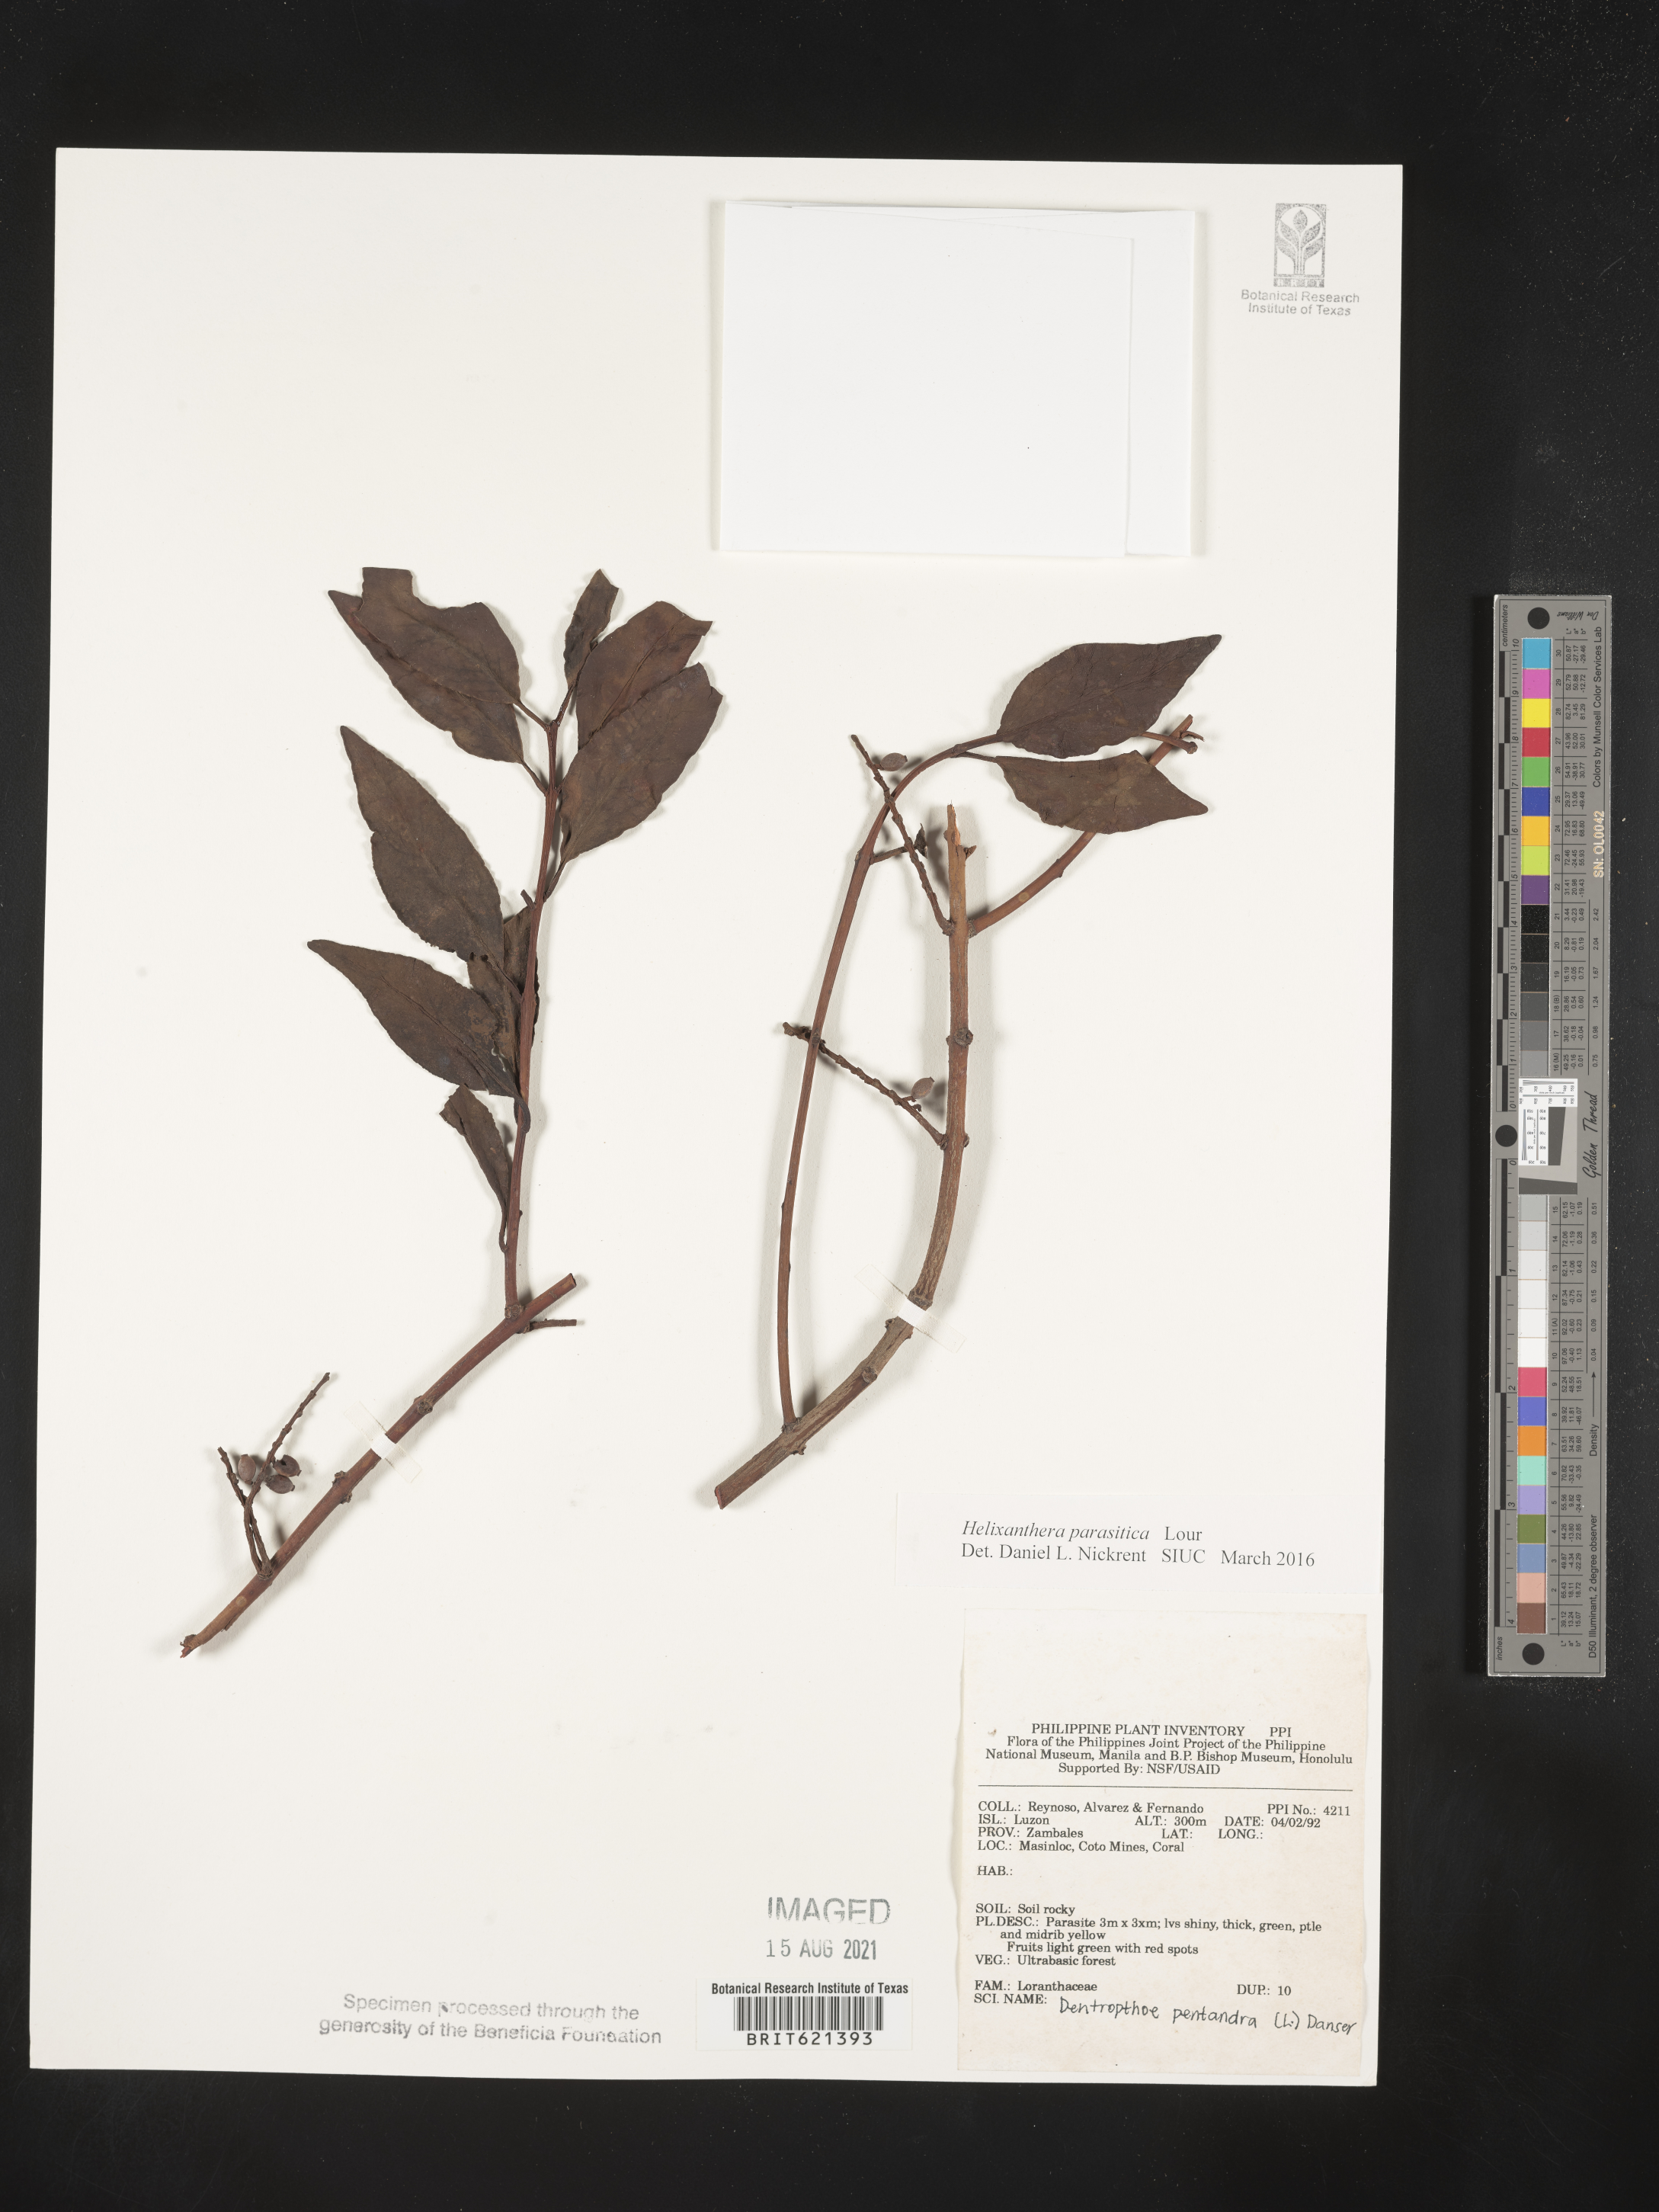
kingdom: Plantae
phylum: Tracheophyta
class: Magnoliopsida
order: Santalales
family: Loranthaceae
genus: Helixanthera
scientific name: Helixanthera parasitica
